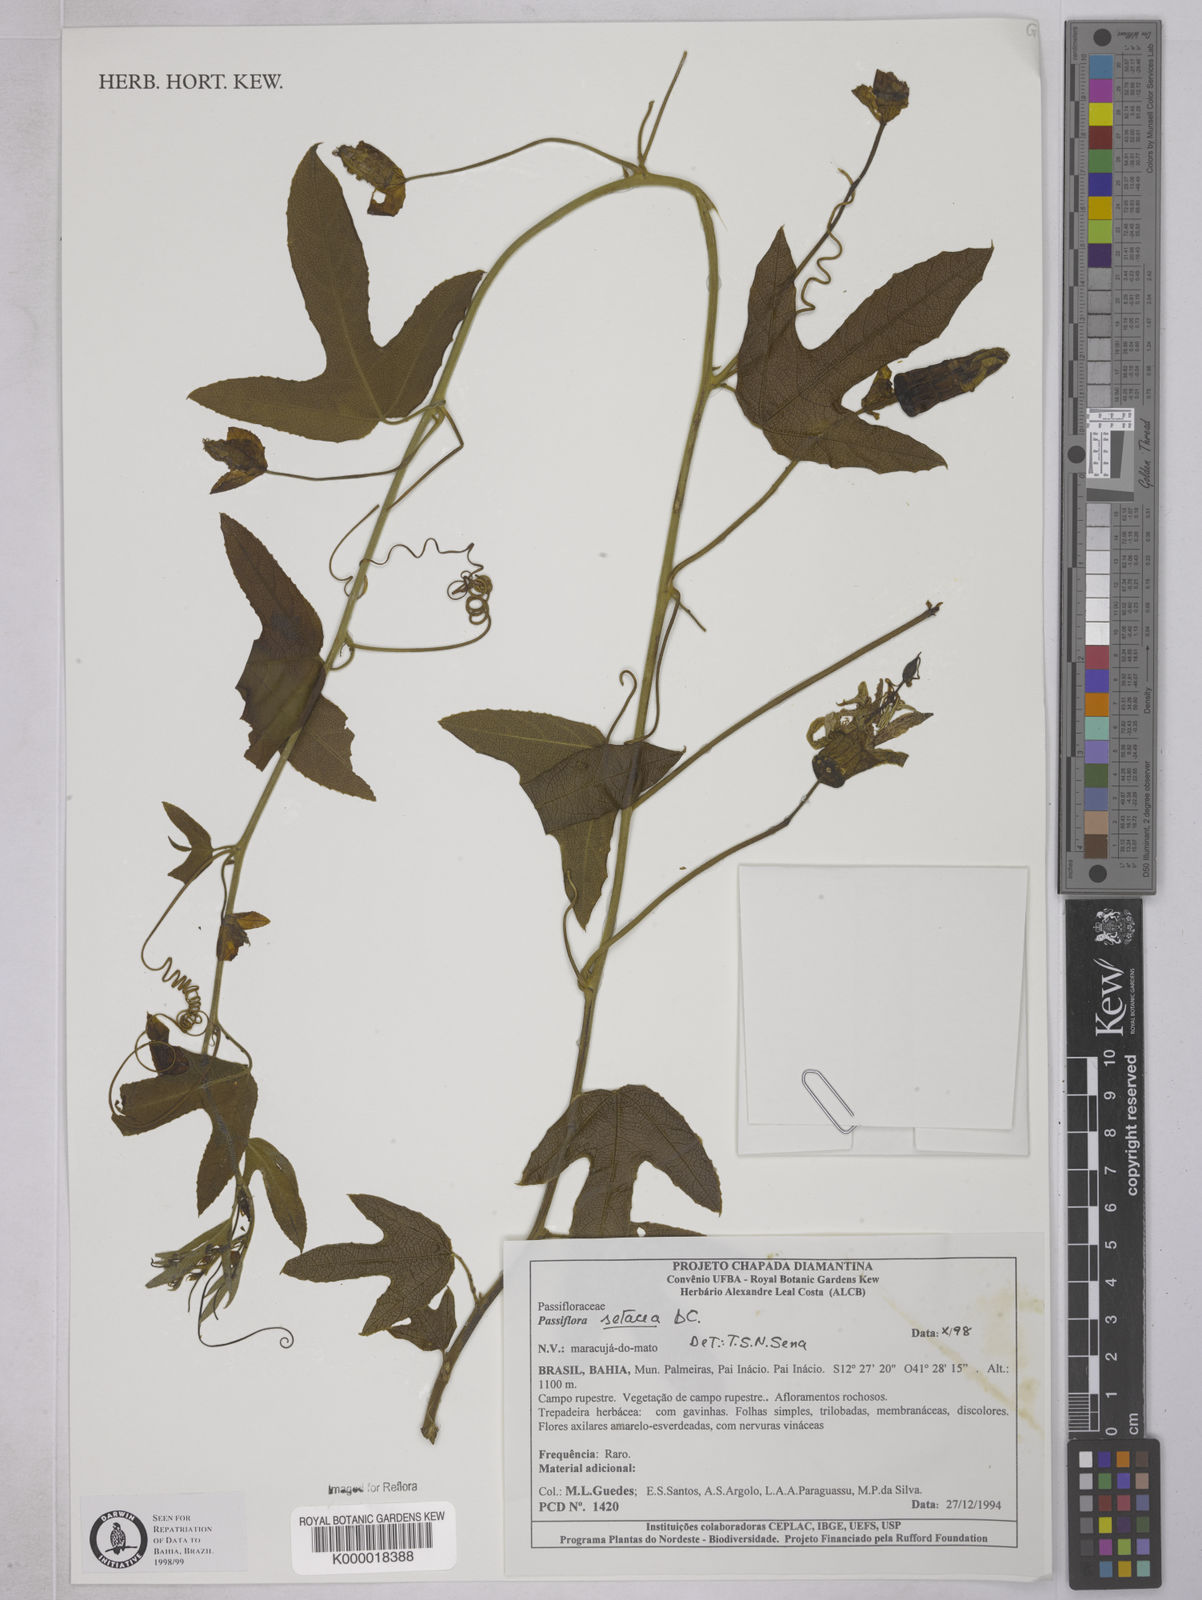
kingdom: Plantae
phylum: Tracheophyta
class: Magnoliopsida
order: Malpighiales
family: Passifloraceae
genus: Passiflora
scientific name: Passiflora setacea
